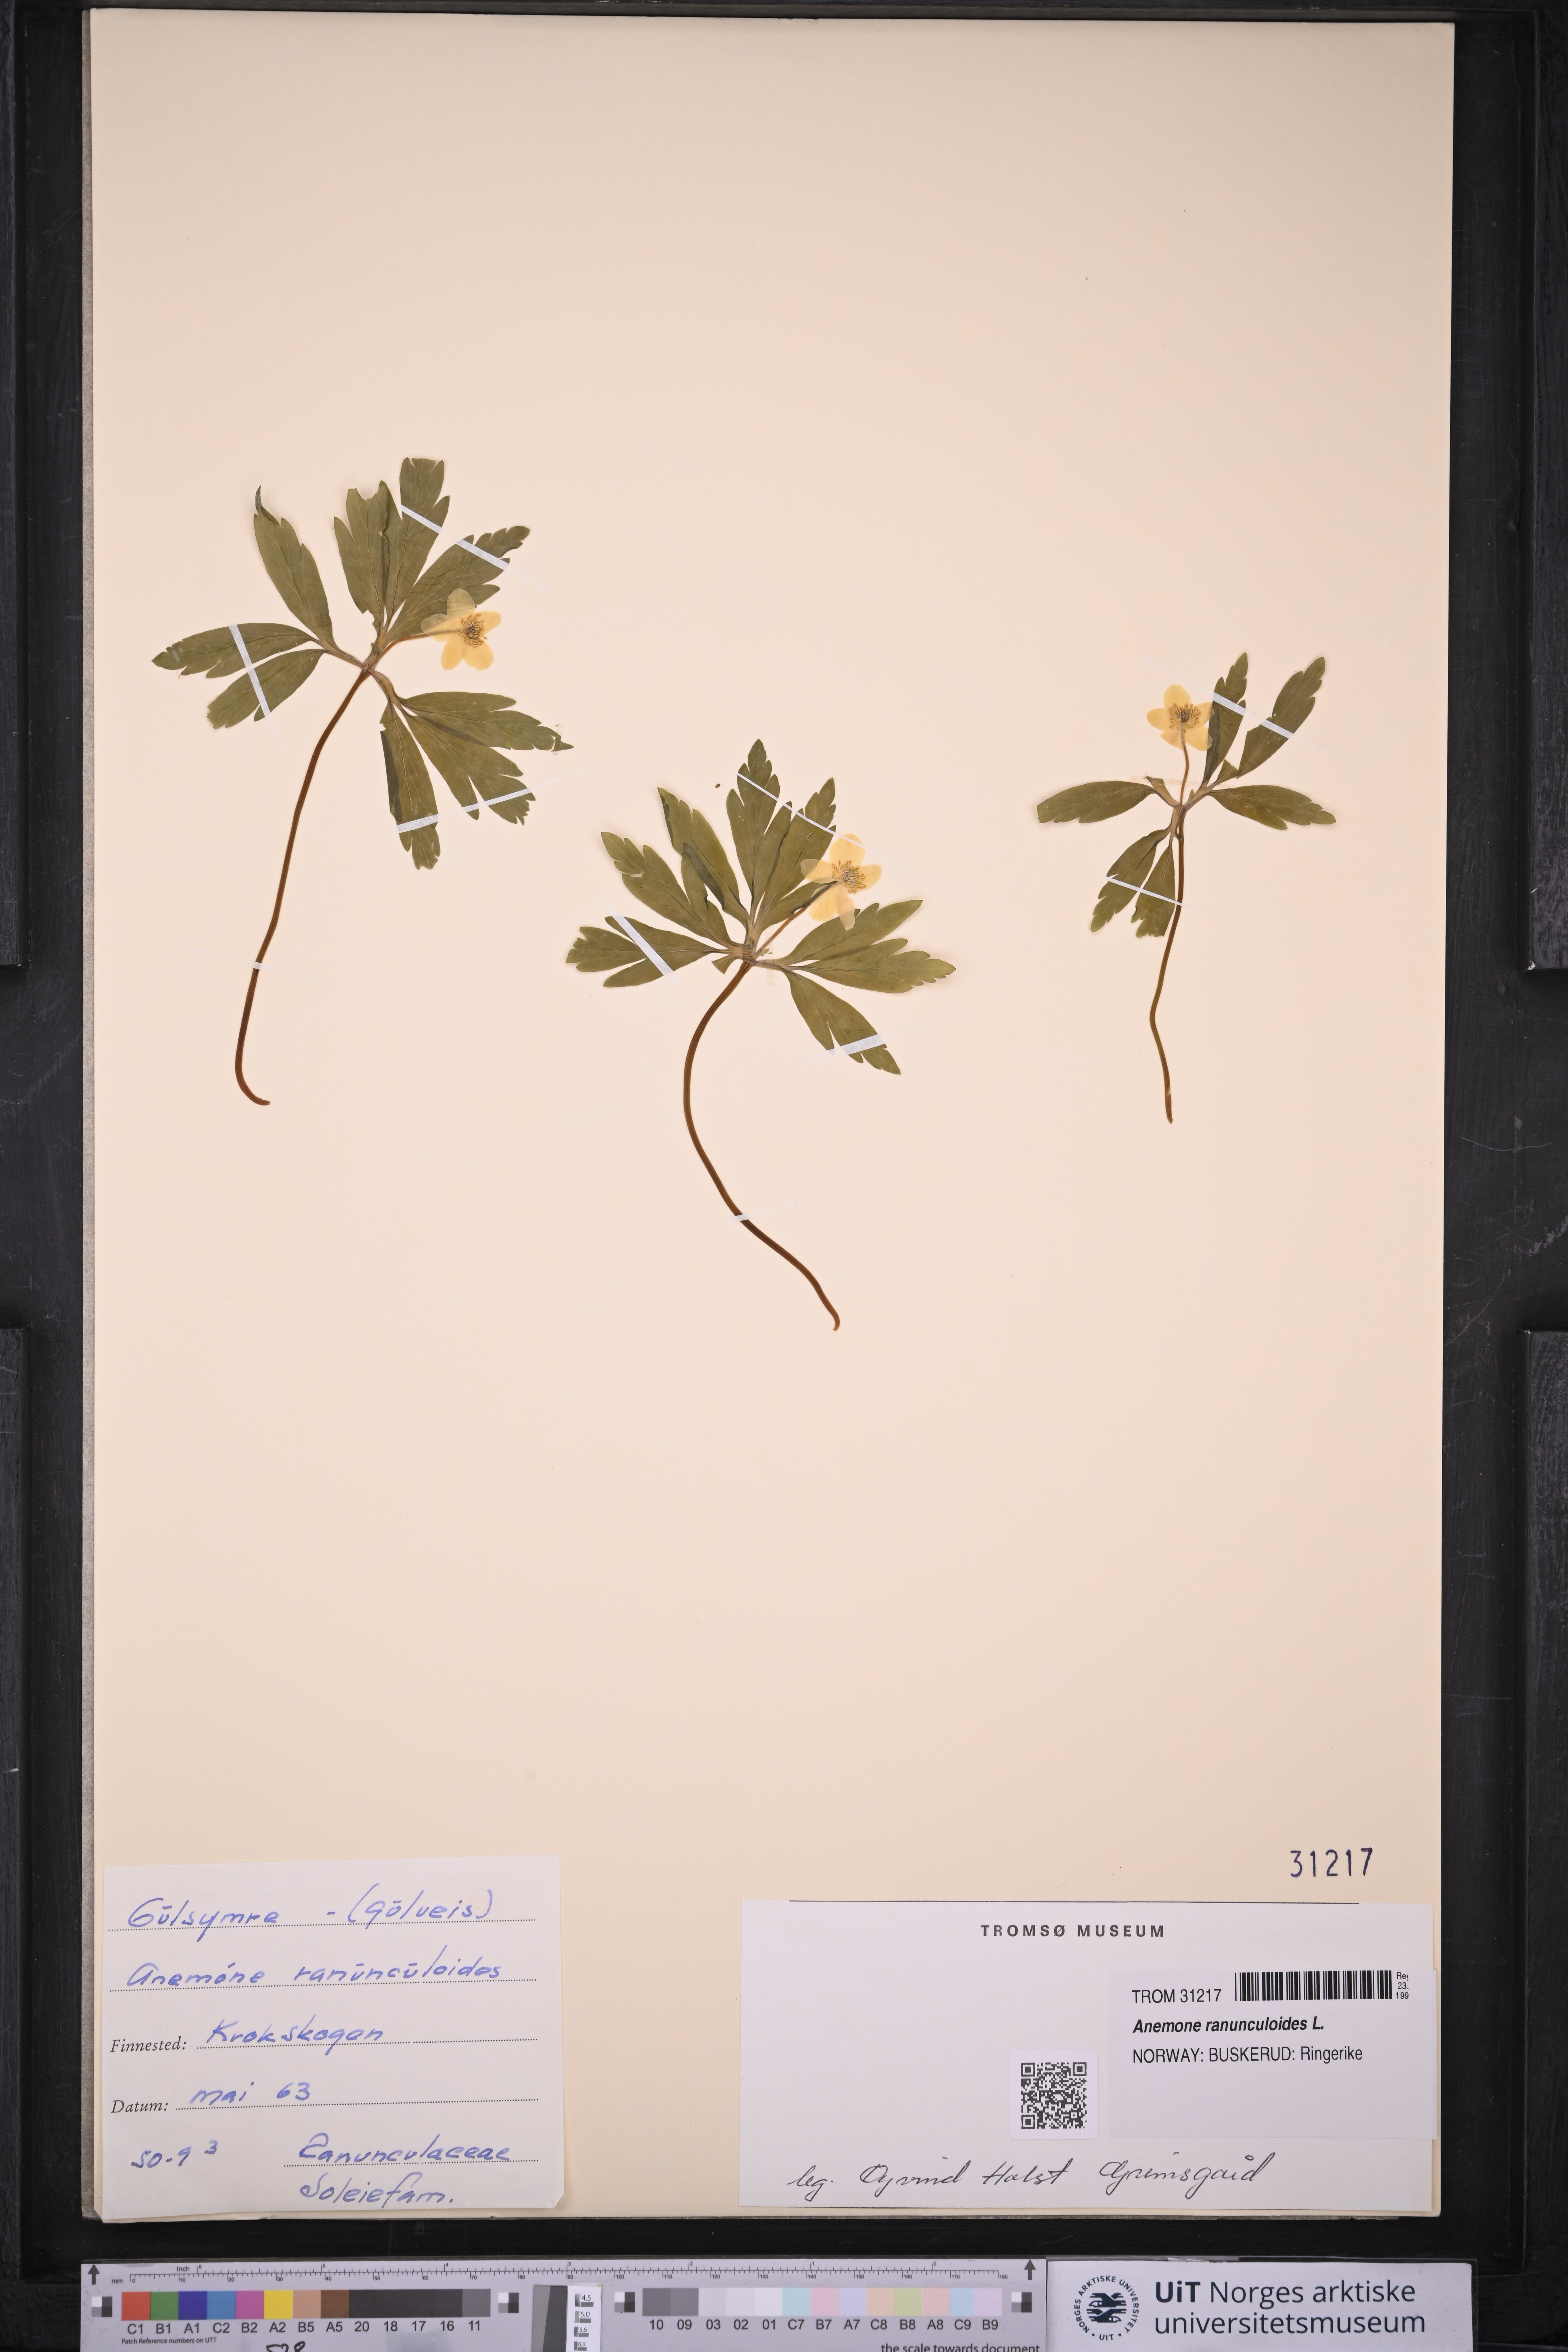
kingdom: Plantae
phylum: Tracheophyta
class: Magnoliopsida
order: Ranunculales
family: Ranunculaceae
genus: Anemone
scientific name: Anemone ranunculoides
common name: Yellow anemone
